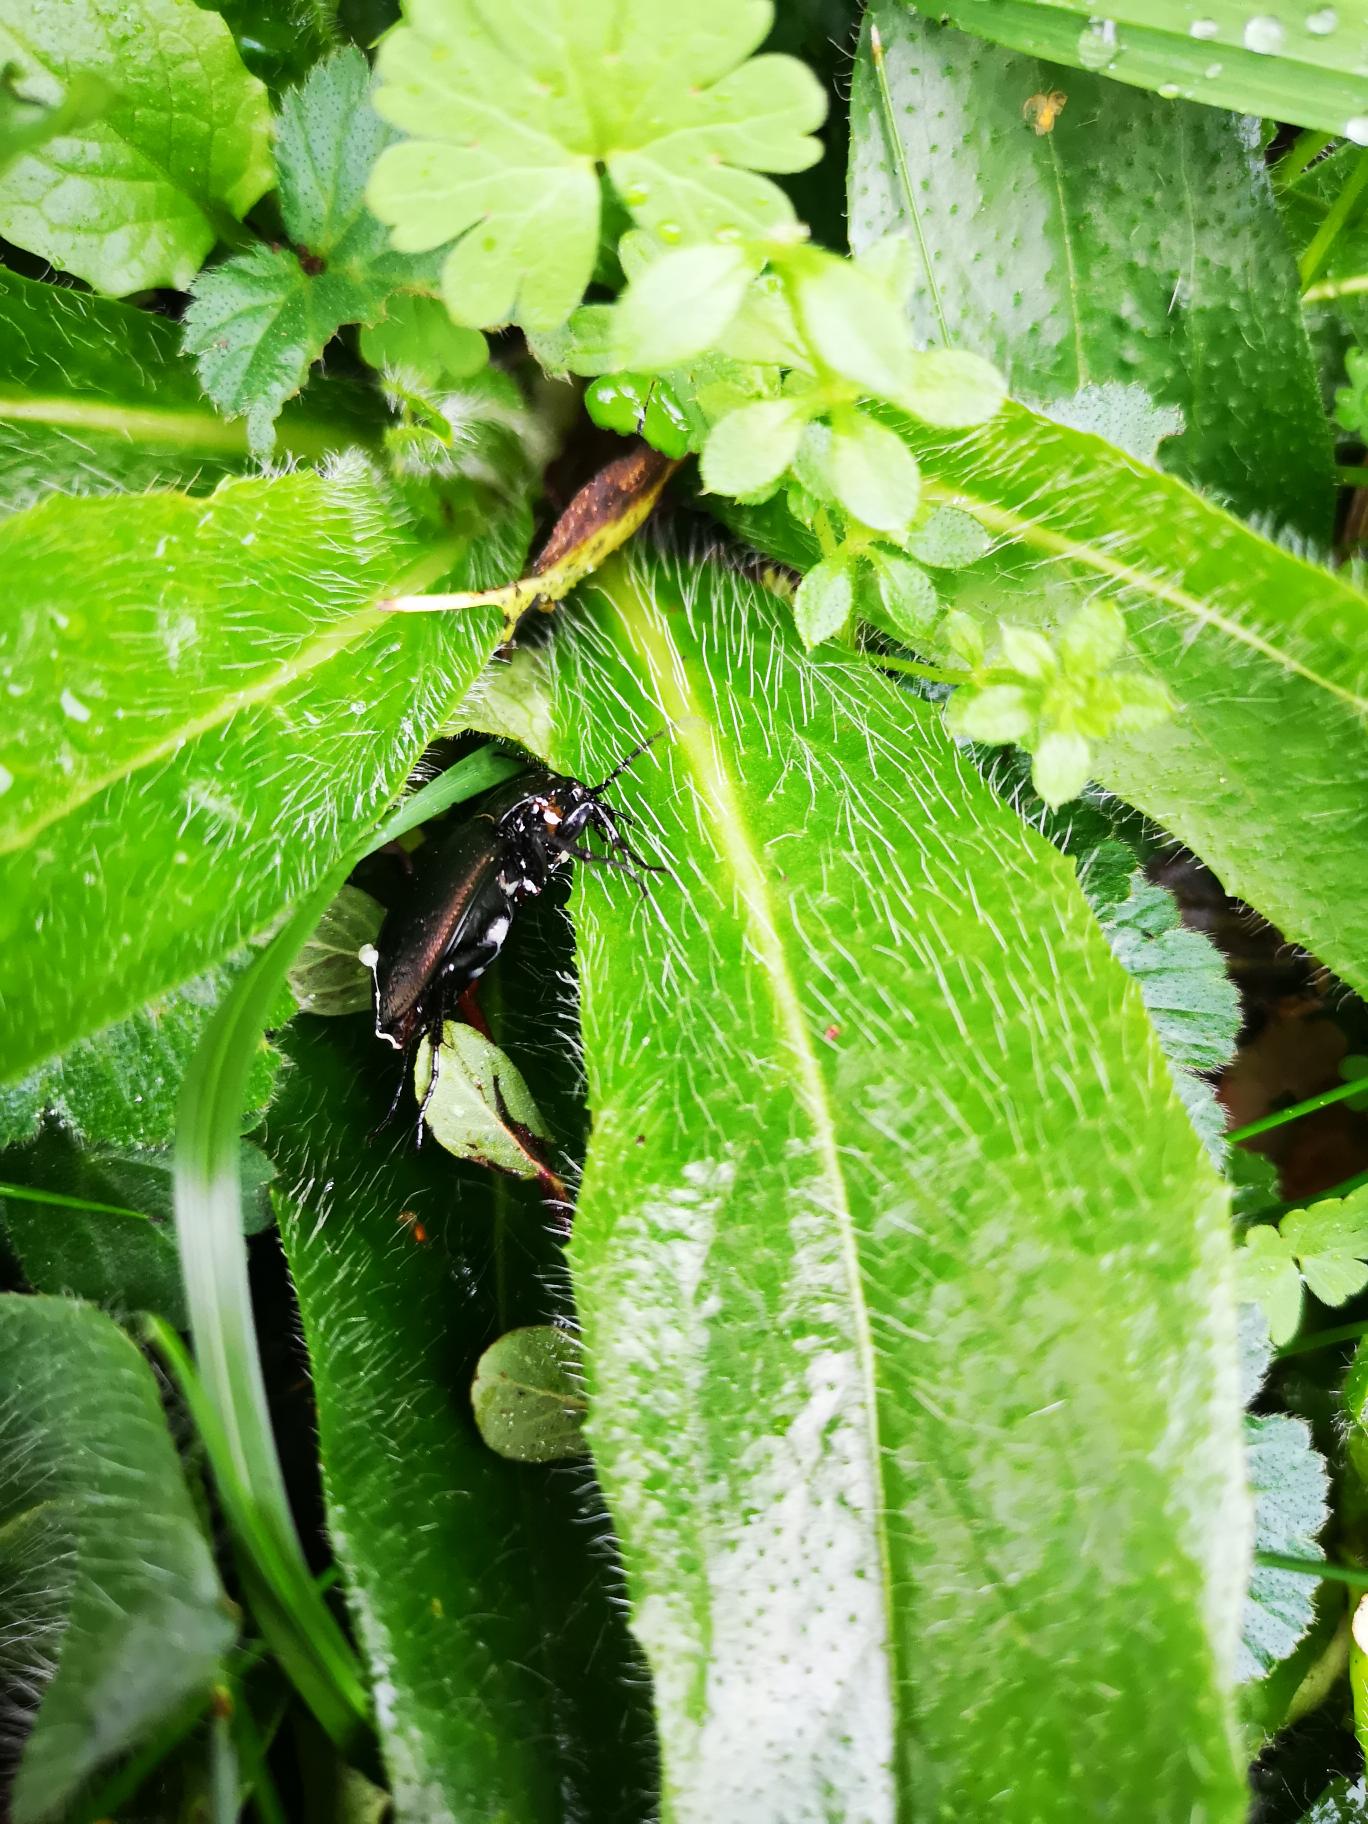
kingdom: Animalia
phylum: Arthropoda
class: Insecta
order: Coleoptera
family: Carabidae
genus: Carabus
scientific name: Carabus nemoralis
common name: Kratløber
